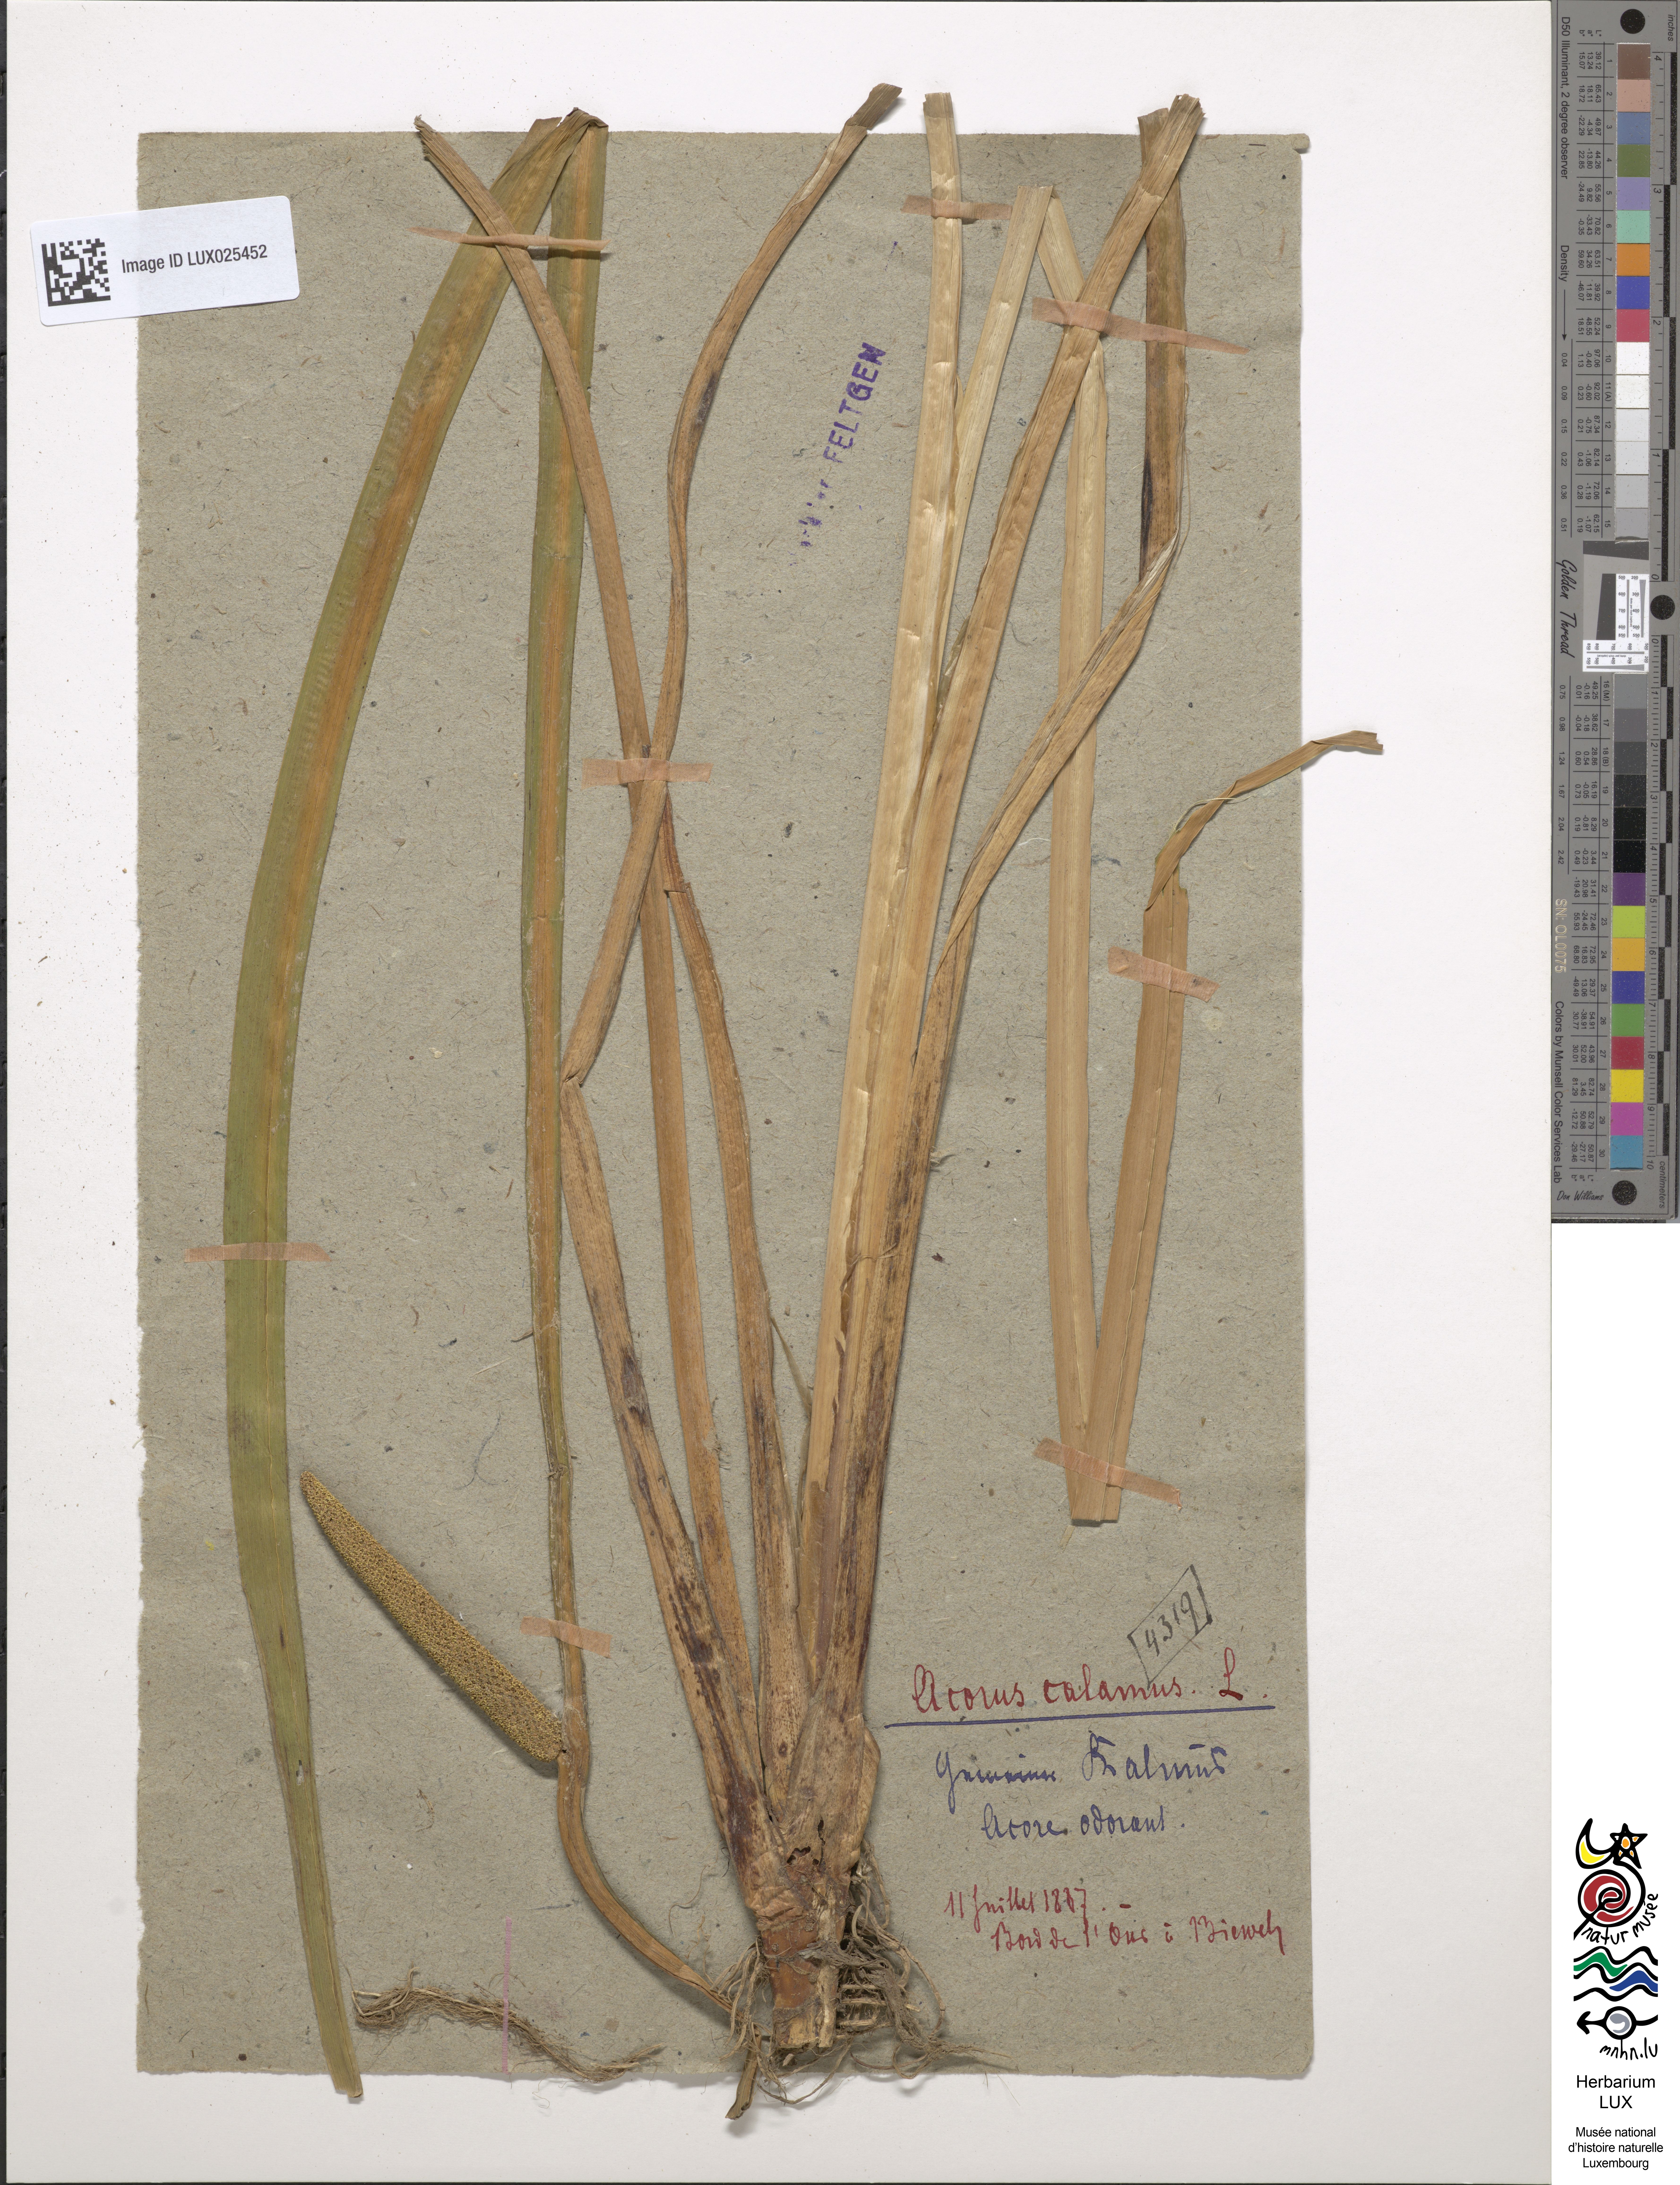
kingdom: Plantae
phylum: Tracheophyta
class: Liliopsida
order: Acorales
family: Acoraceae
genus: Acorus
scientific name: Acorus calamus
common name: Sweet-flag
